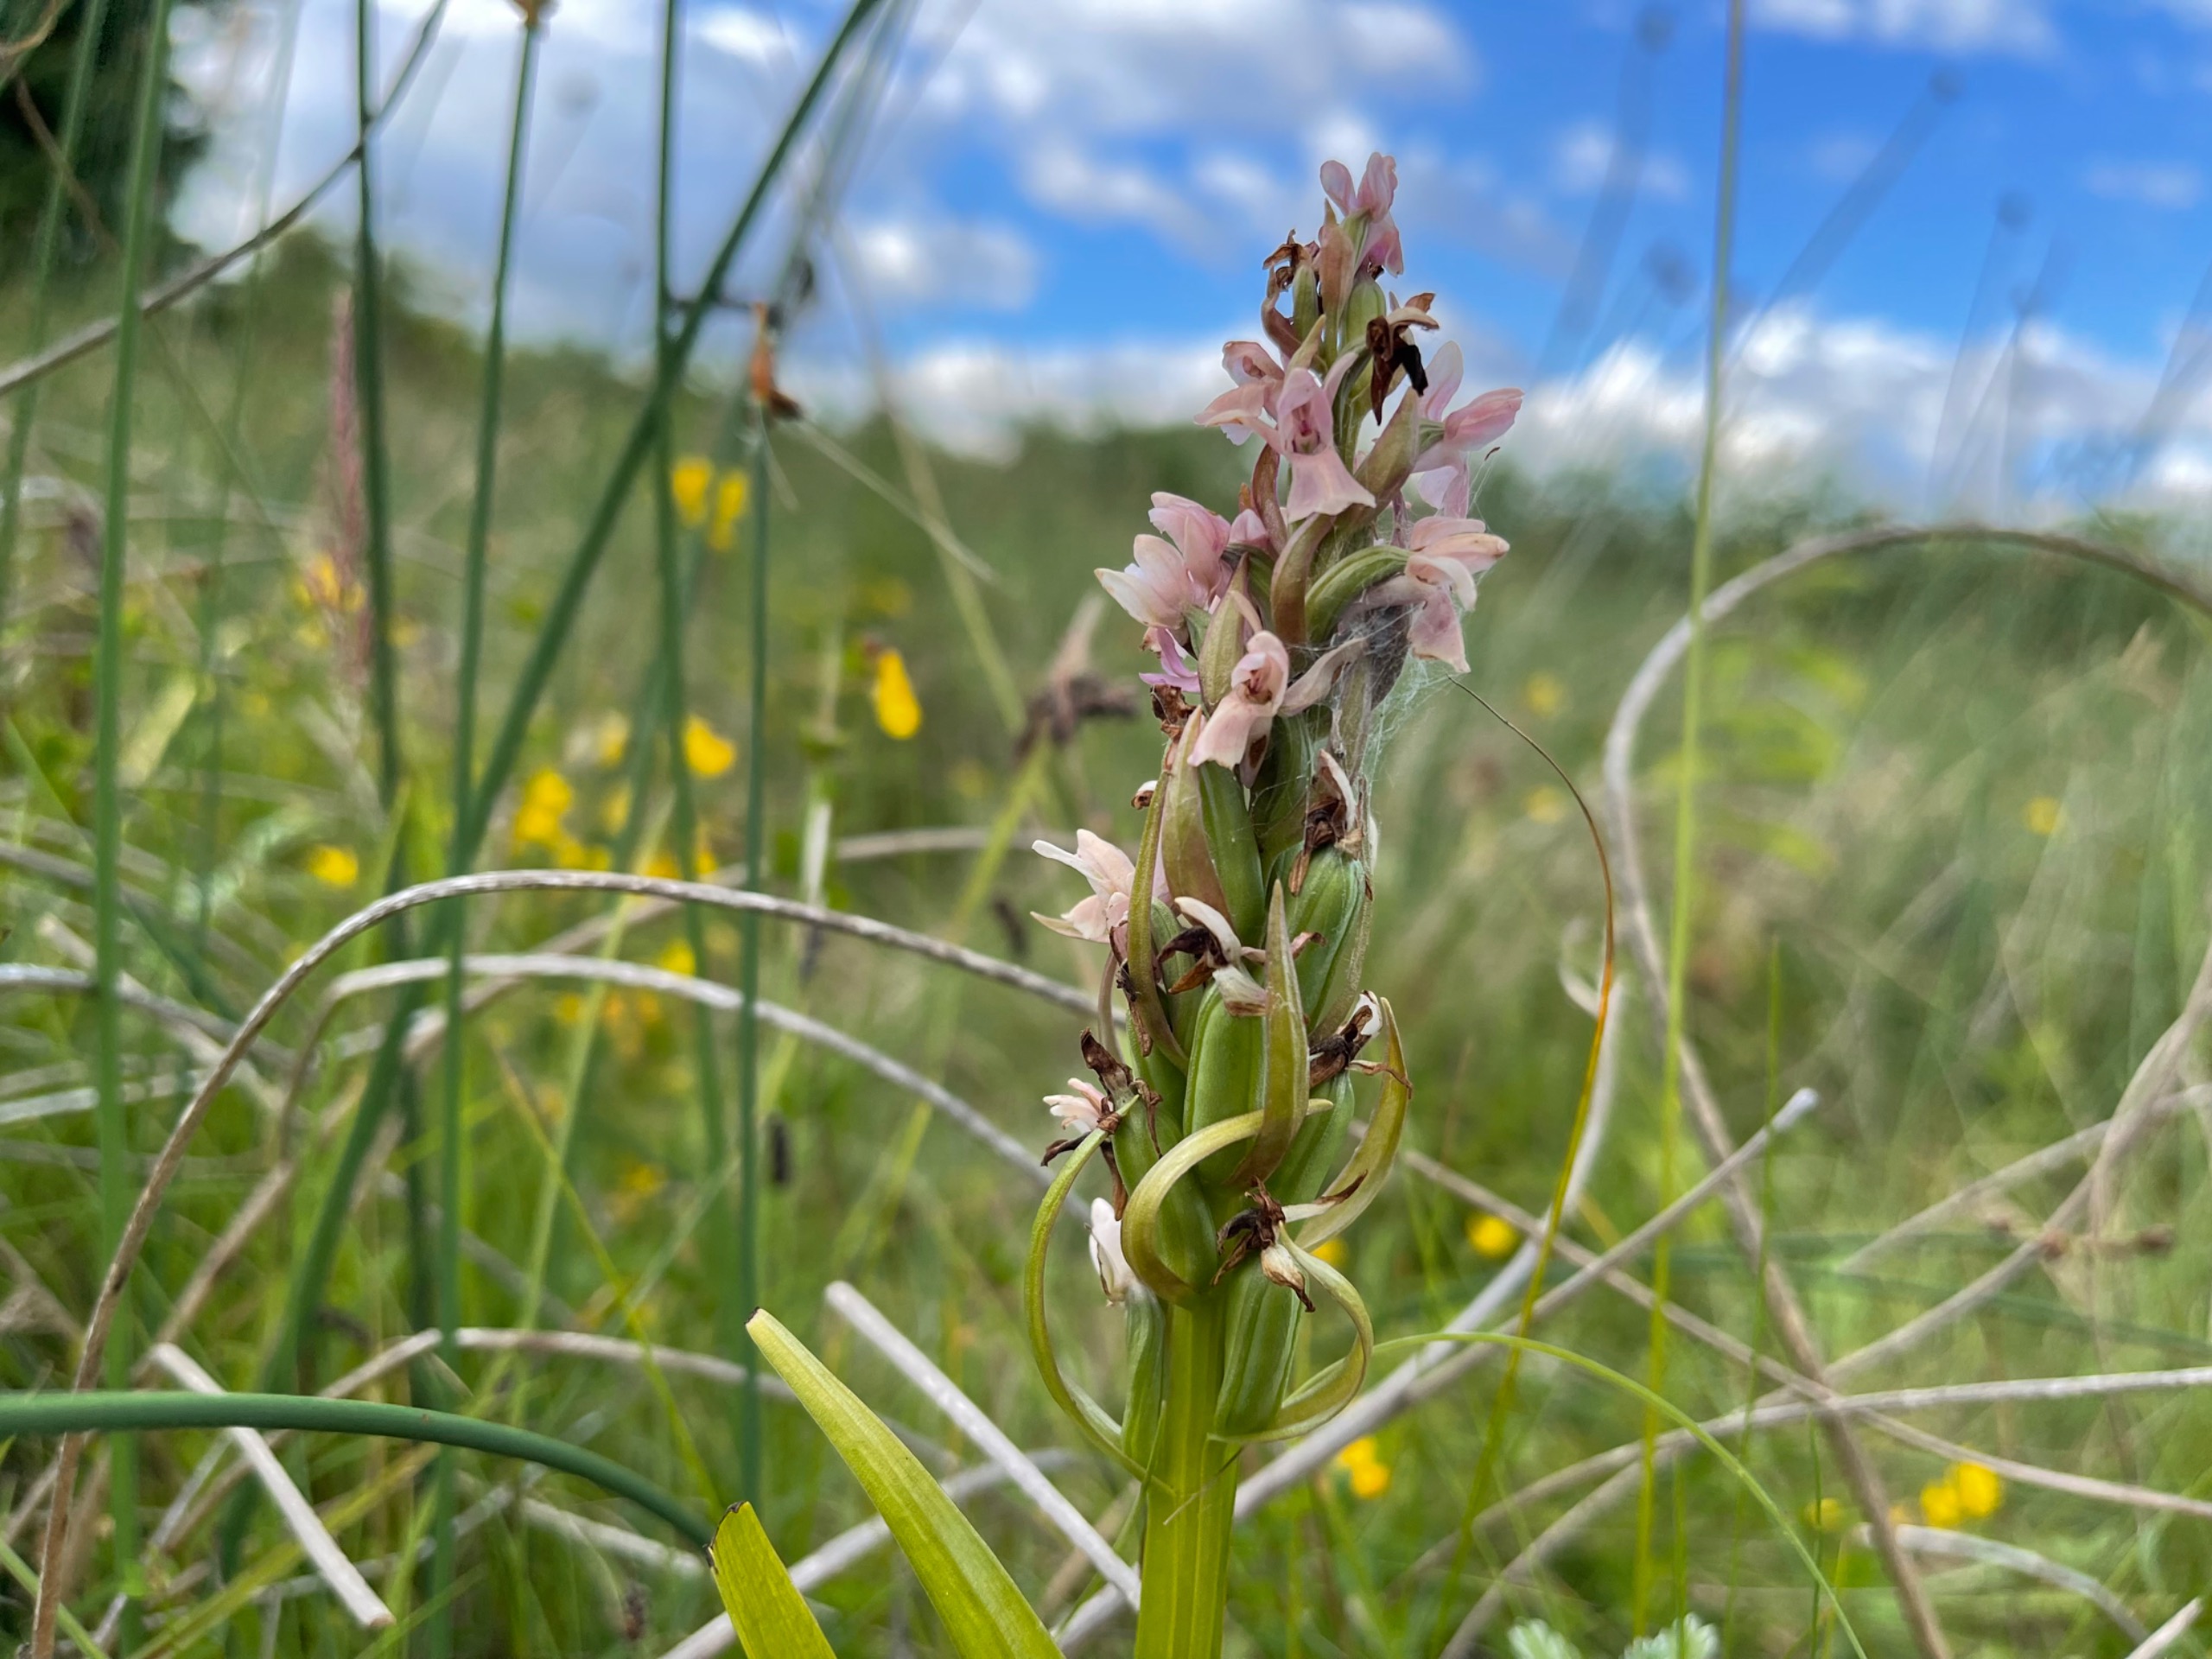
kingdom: Plantae
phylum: Tracheophyta
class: Liliopsida
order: Asparagales
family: Orchidaceae
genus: Dactylorhiza
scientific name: Dactylorhiza incarnata
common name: Kødfarvet gøgeurt
